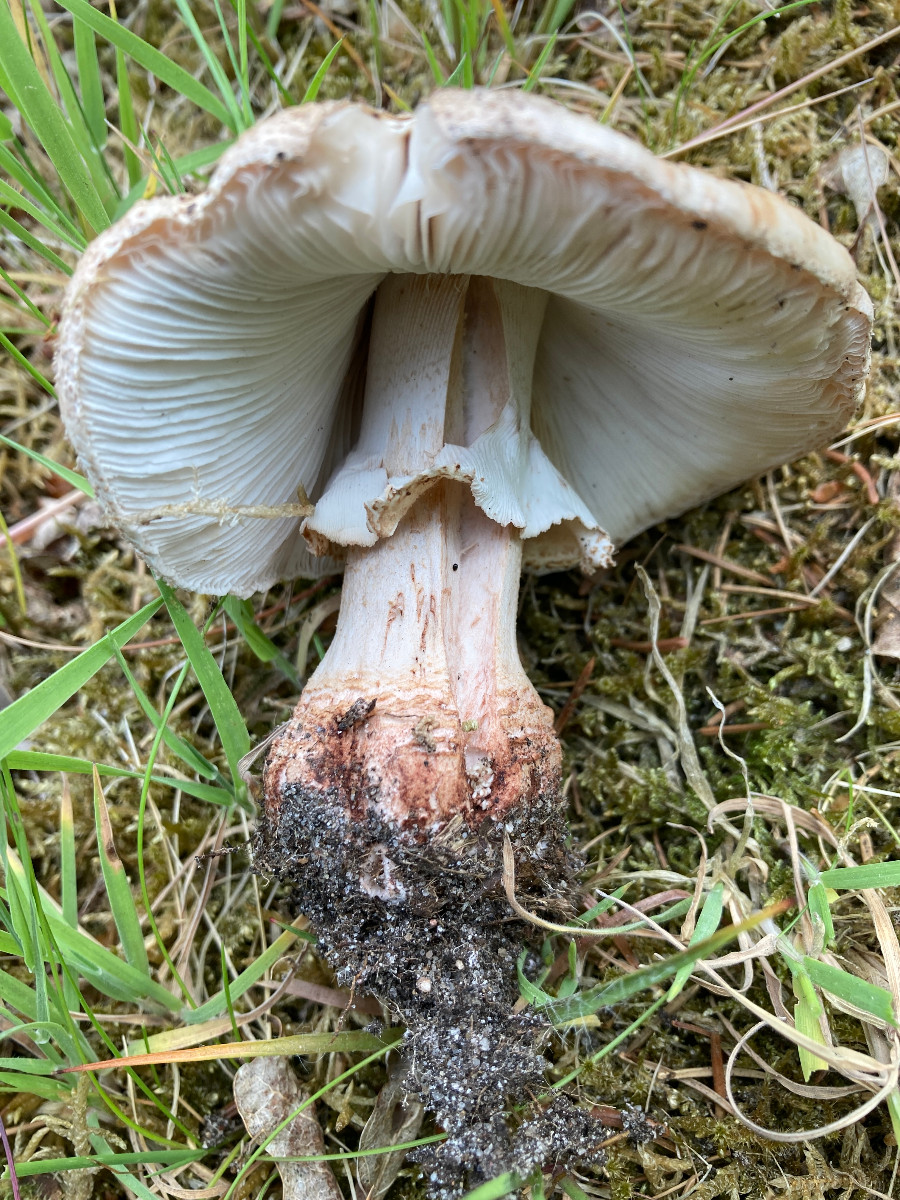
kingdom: Fungi
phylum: Basidiomycota
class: Agaricomycetes
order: Agaricales
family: Amanitaceae
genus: Amanita
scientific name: Amanita rubescens
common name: rødmende fluesvamp
